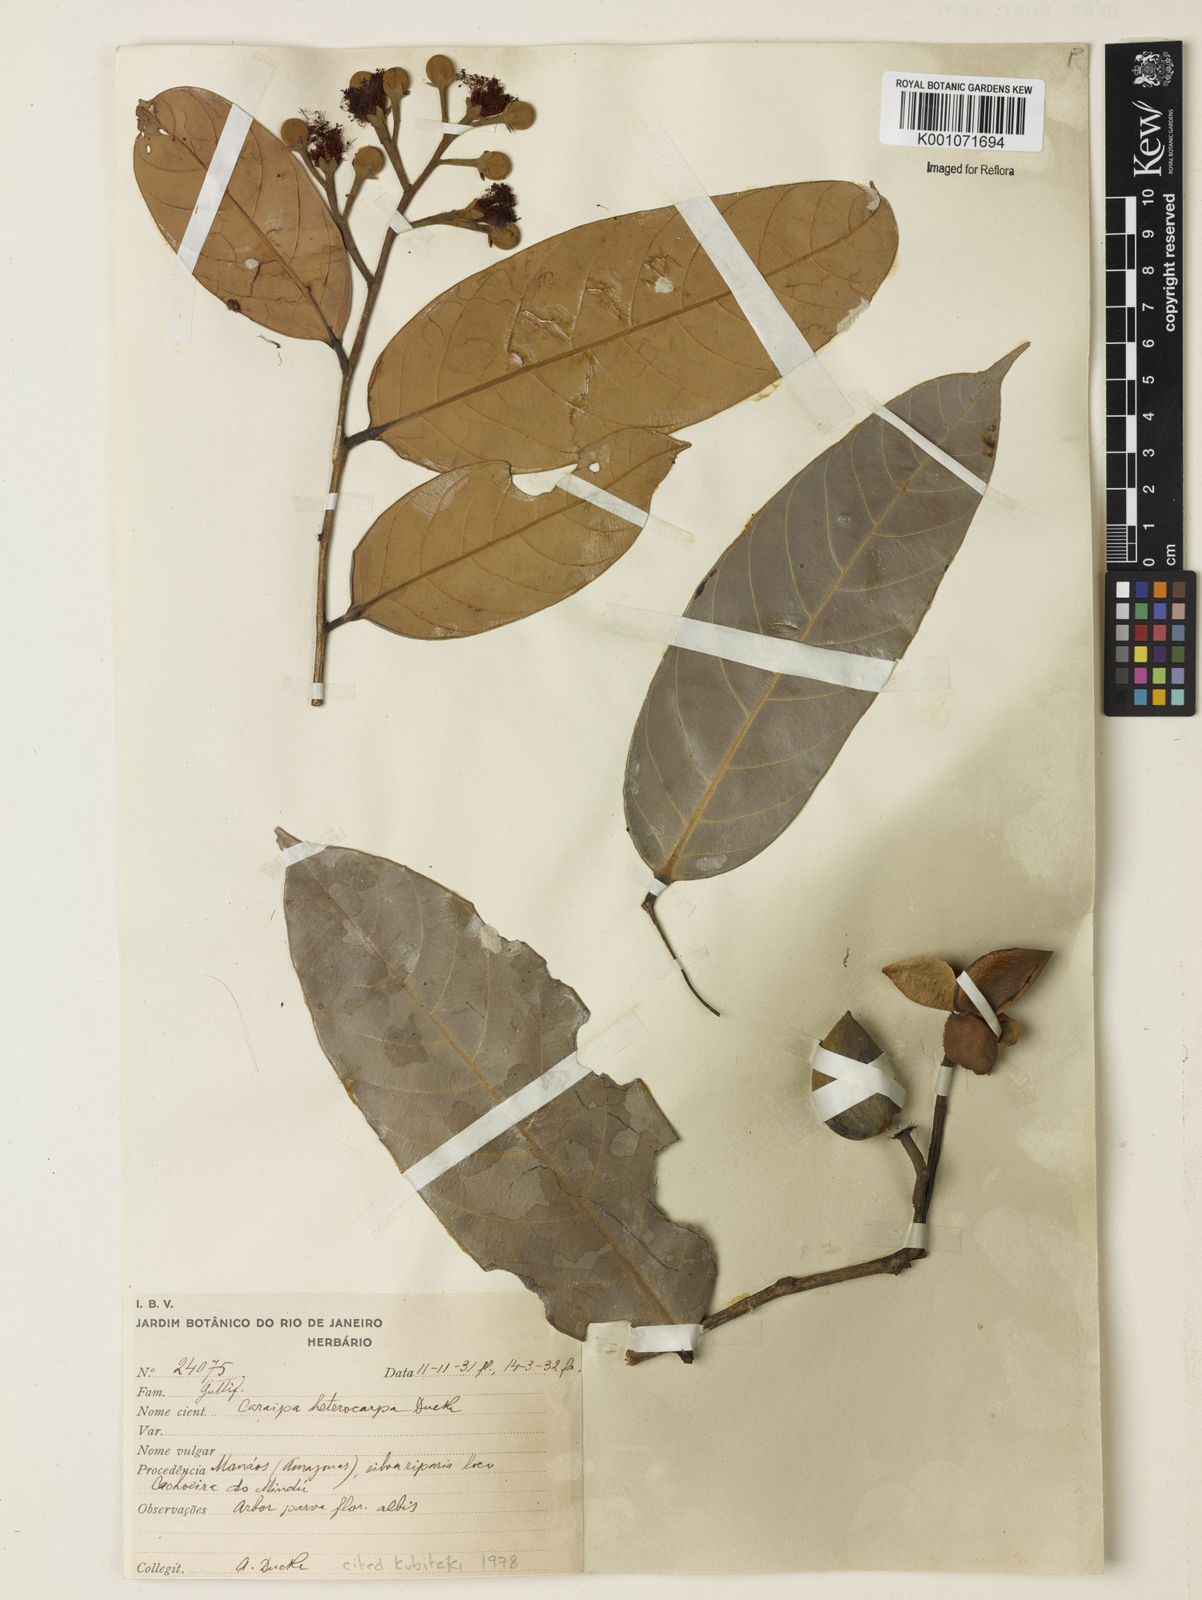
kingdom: Plantae
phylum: Tracheophyta
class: Magnoliopsida
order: Malpighiales
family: Calophyllaceae
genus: Caraipa
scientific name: Caraipa heterocarpa
